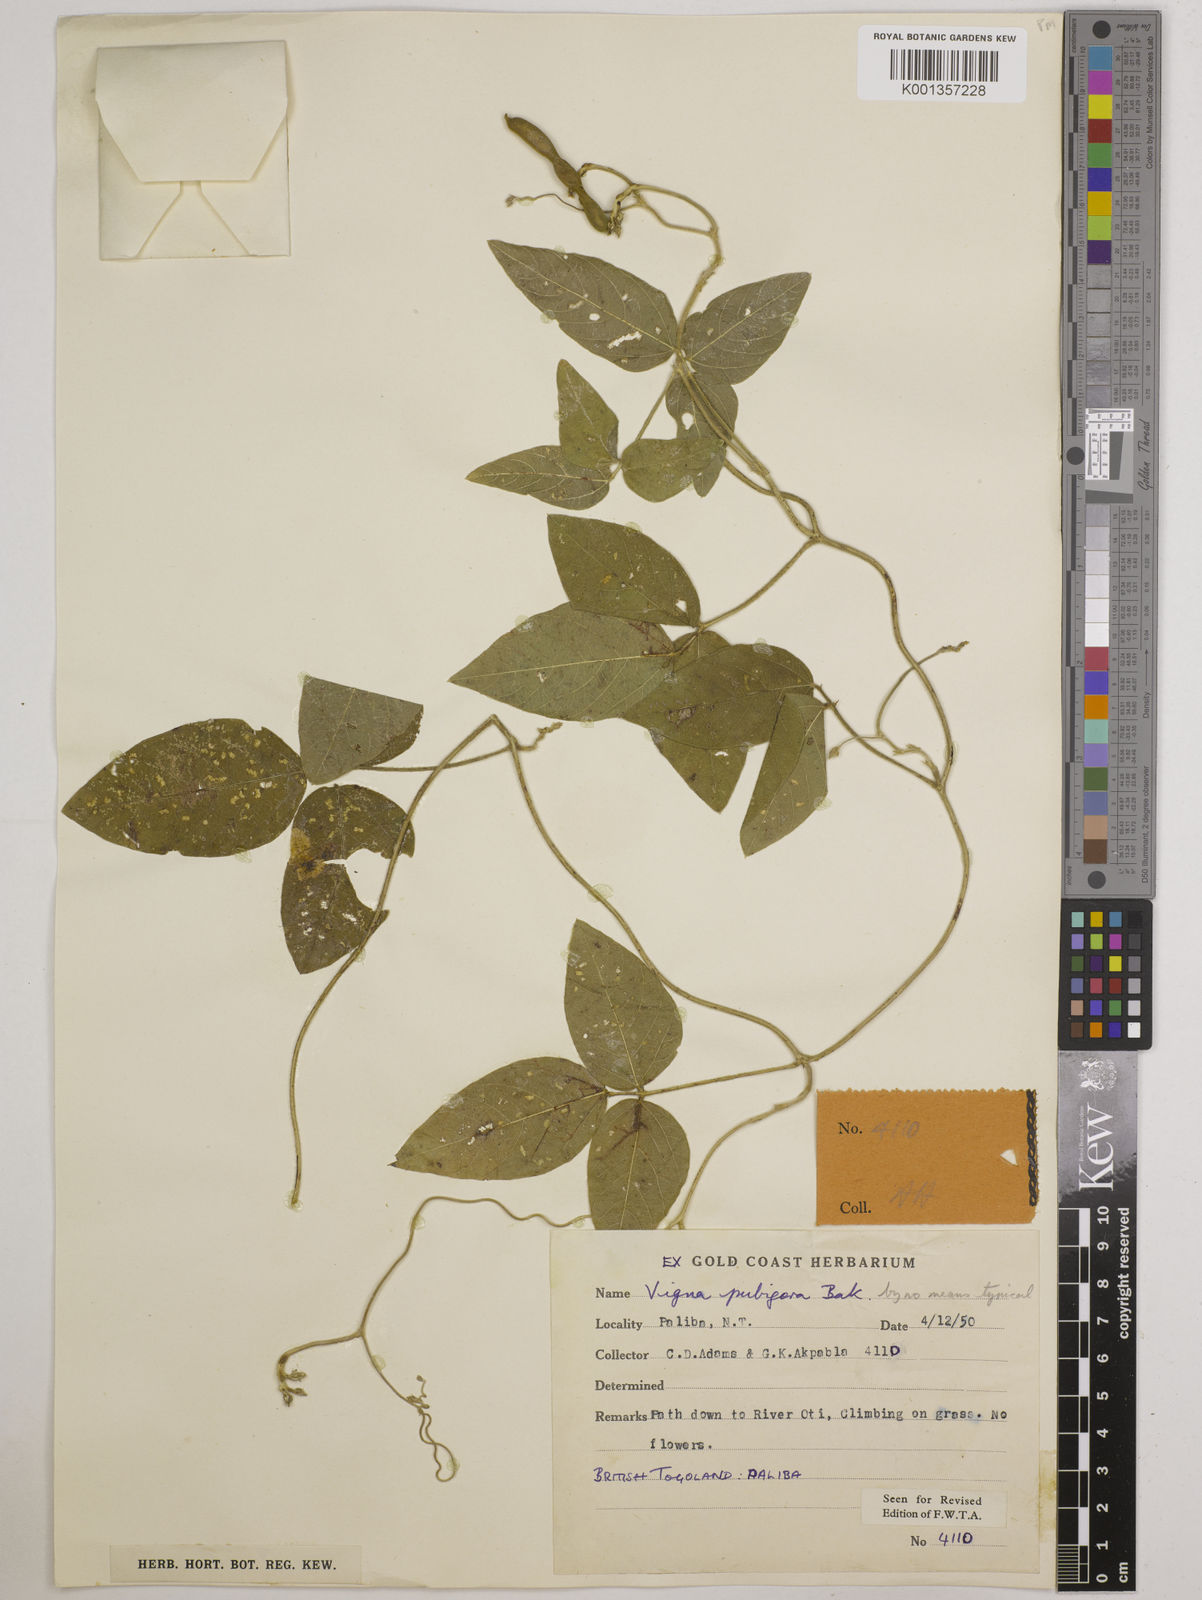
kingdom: Plantae
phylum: Tracheophyta
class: Magnoliopsida
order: Fabales
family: Fabaceae
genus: Vigna
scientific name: Vigna ambacensis
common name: Tsarkiyan zomo
